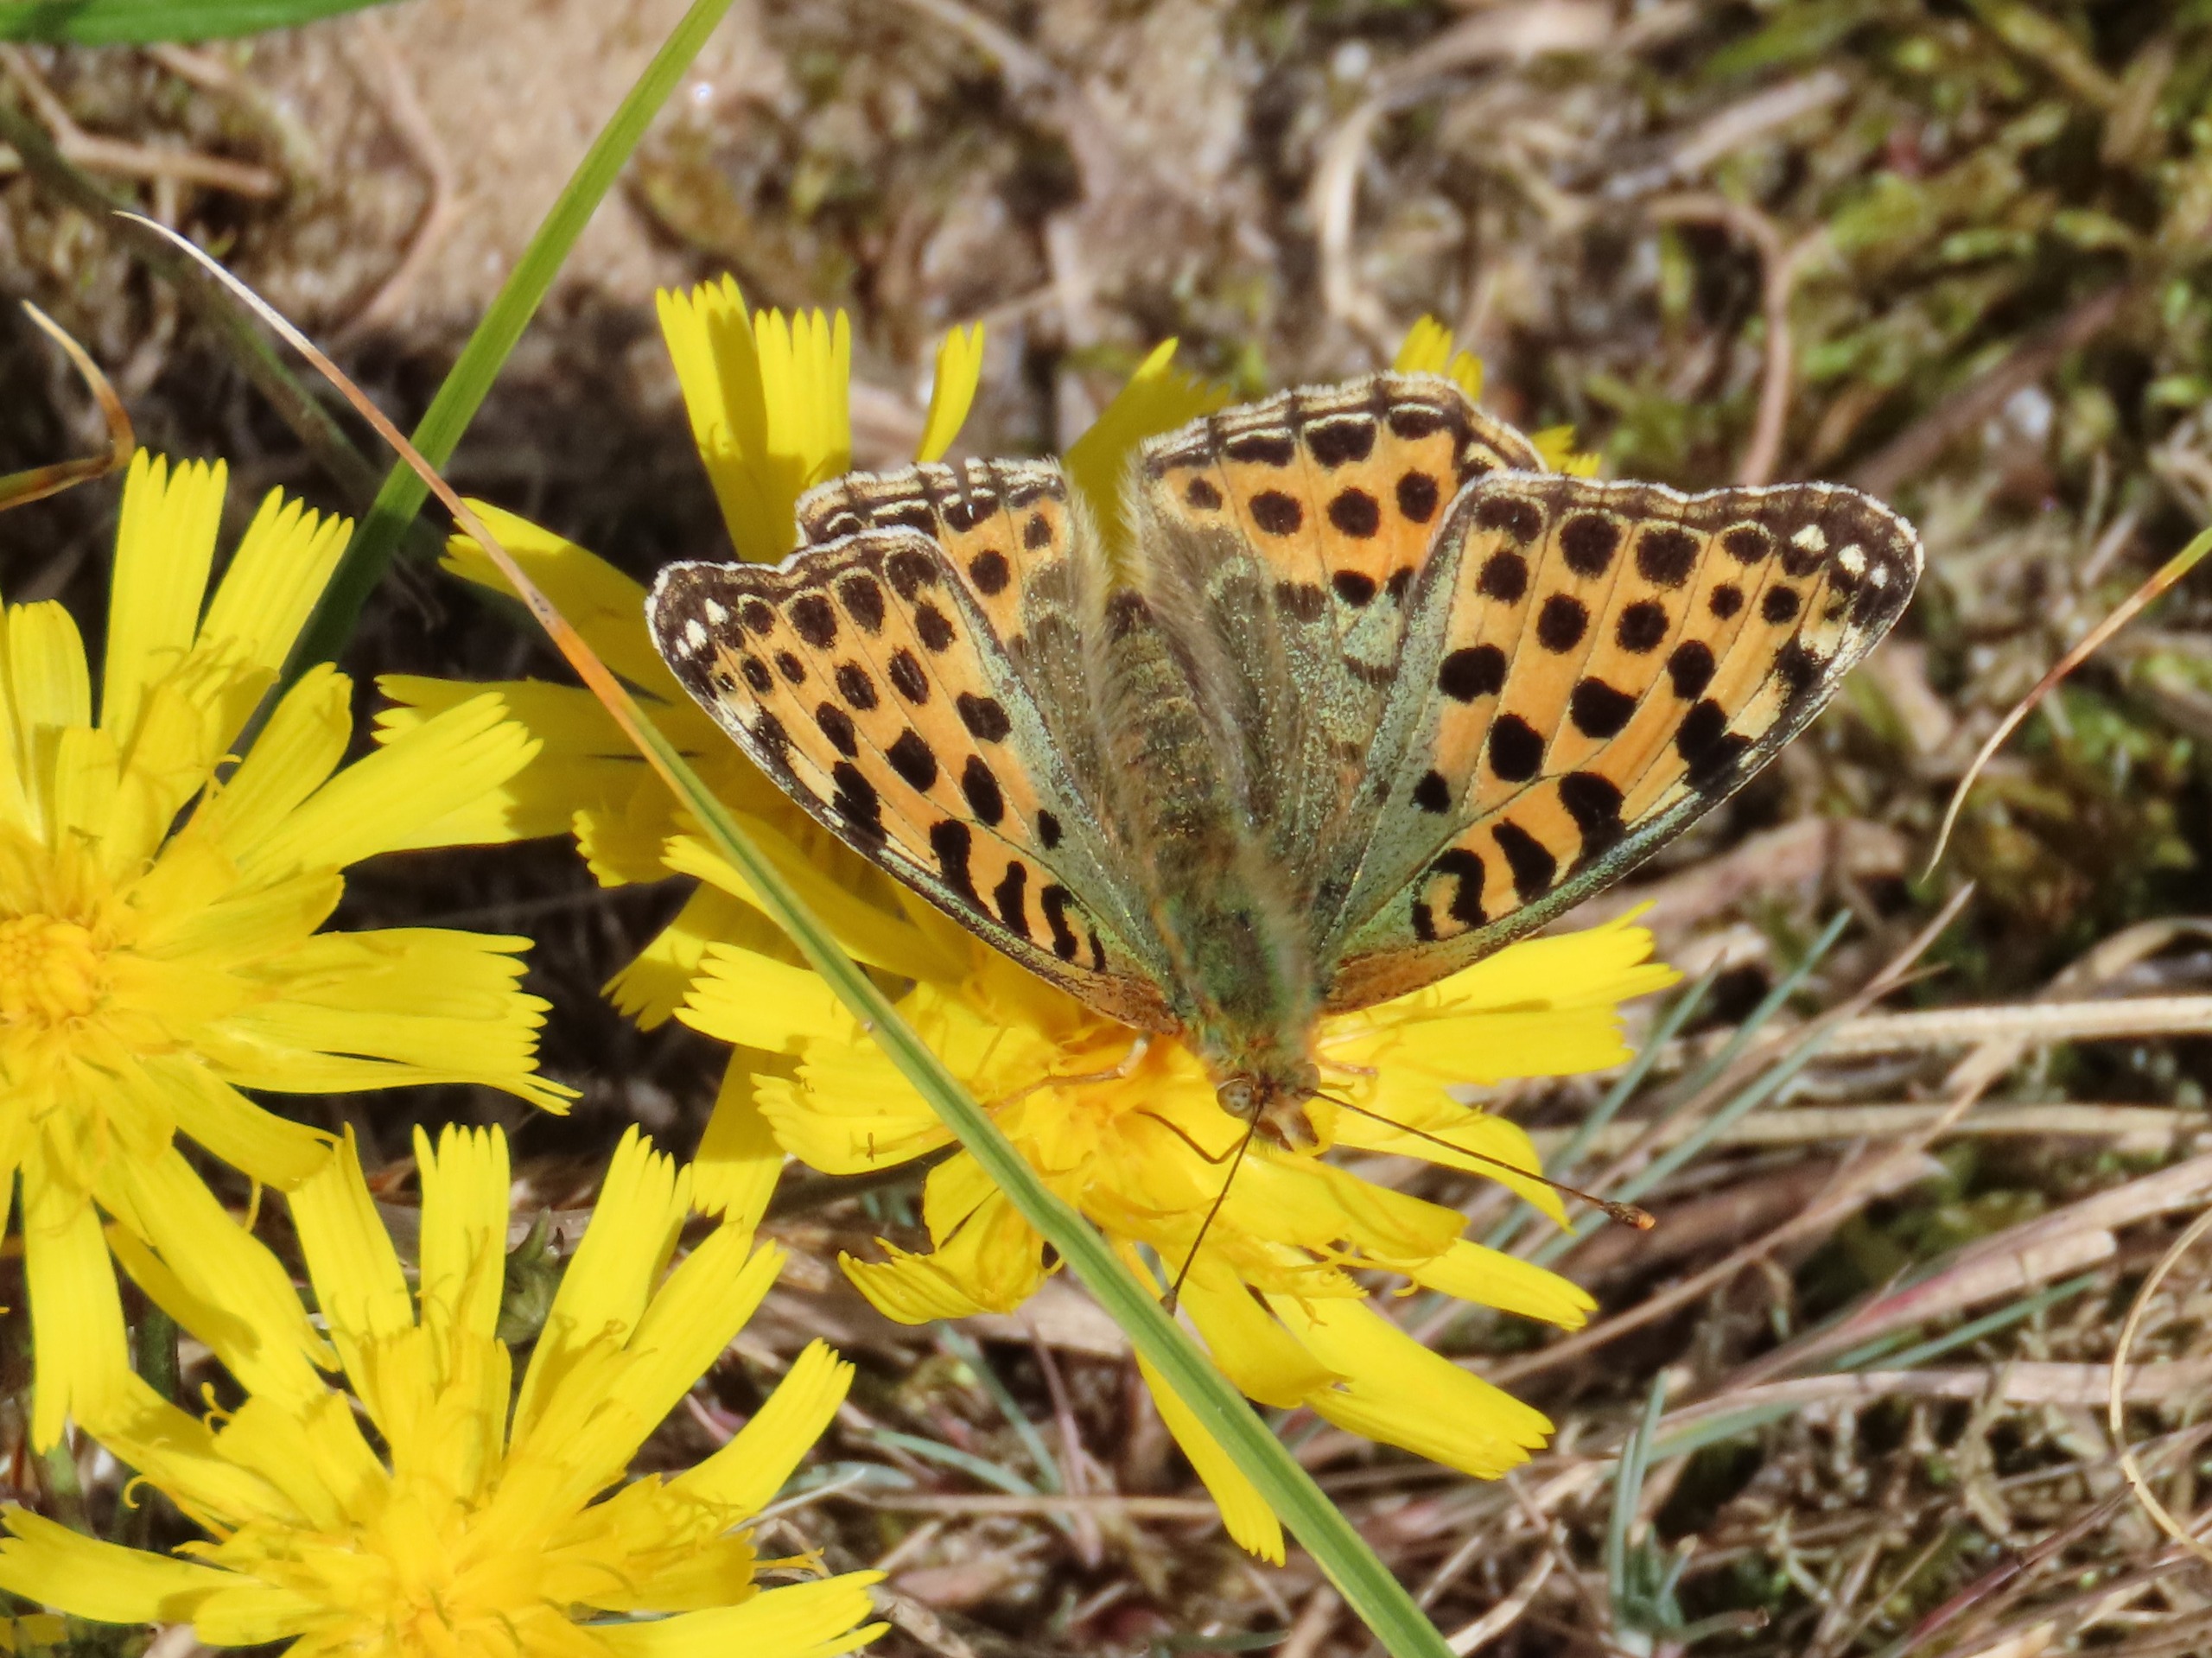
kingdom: Animalia
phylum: Arthropoda
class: Insecta
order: Lepidoptera
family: Nymphalidae
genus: Issoria
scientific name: Issoria lathonia
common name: Storplettet perlemorsommerfugl
